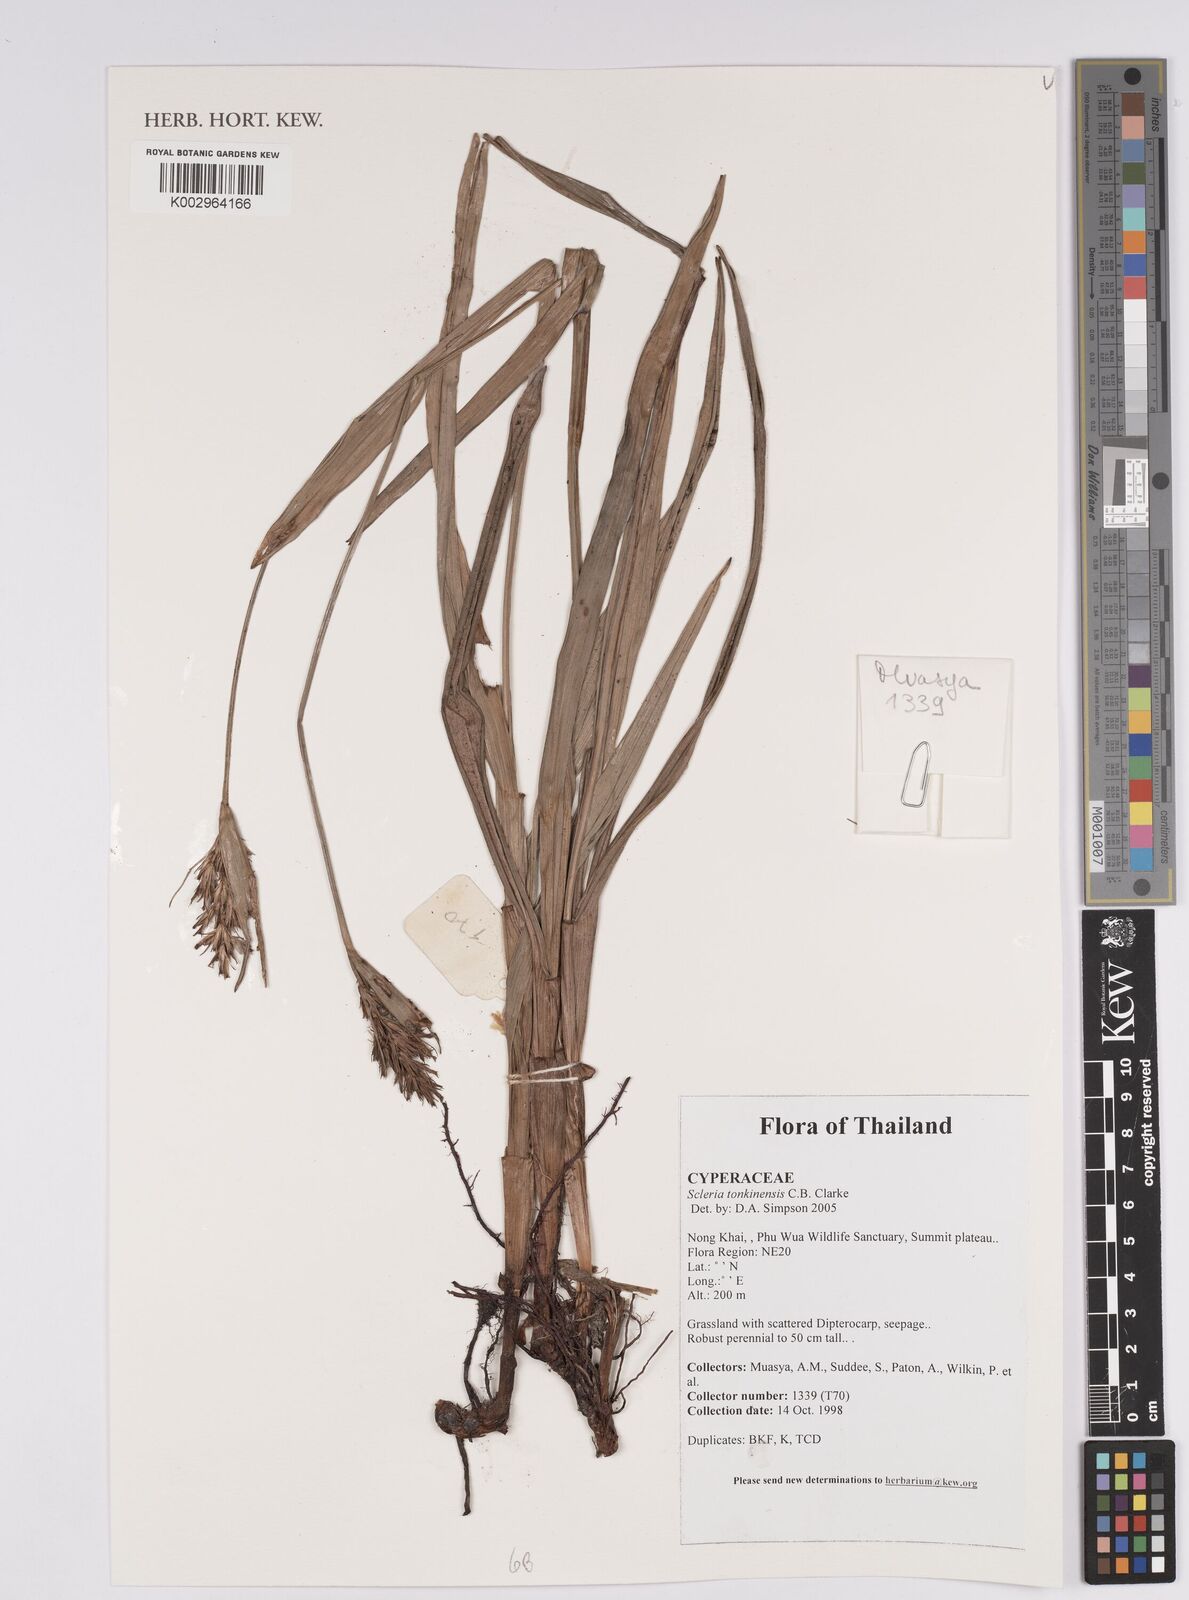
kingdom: Plantae
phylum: Tracheophyta
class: Liliopsida
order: Poales
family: Cyperaceae
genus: Scleria
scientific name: Scleria tonkinensis
